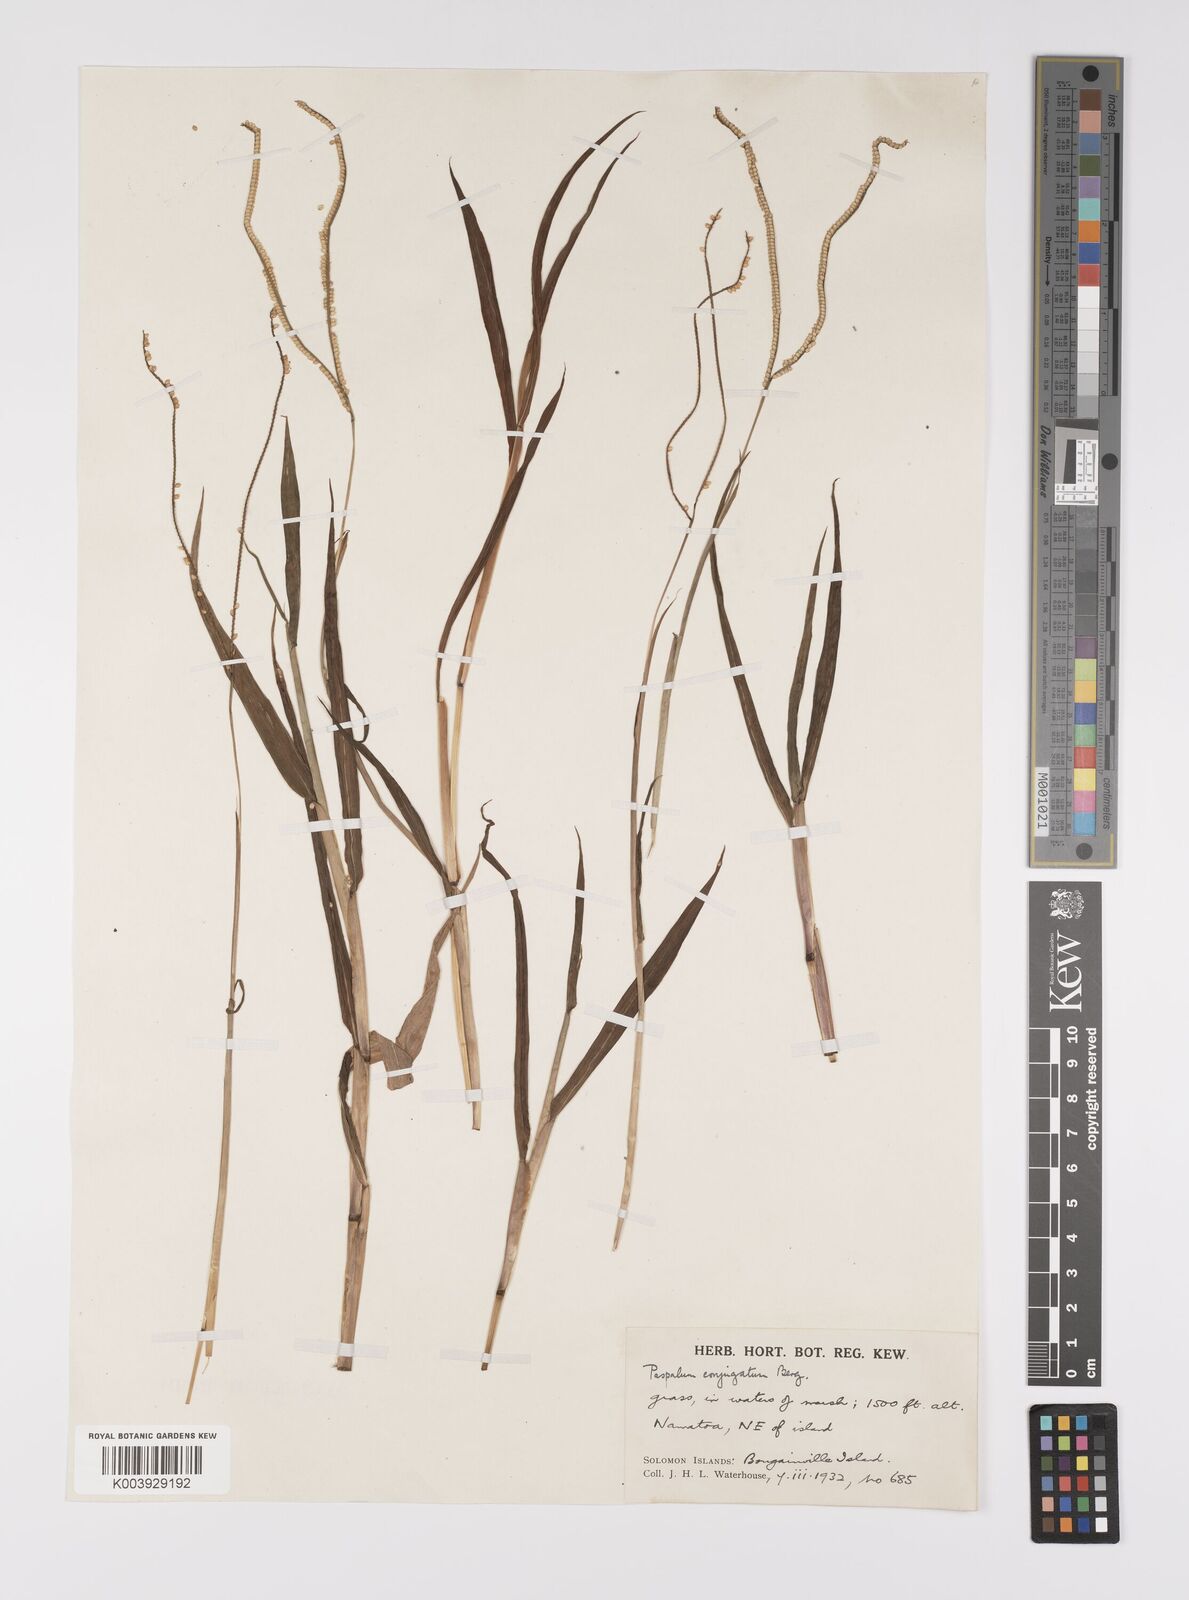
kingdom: Plantae
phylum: Tracheophyta
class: Liliopsida
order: Poales
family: Poaceae
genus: Paspalum
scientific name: Paspalum conjugatum
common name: Hilograss
